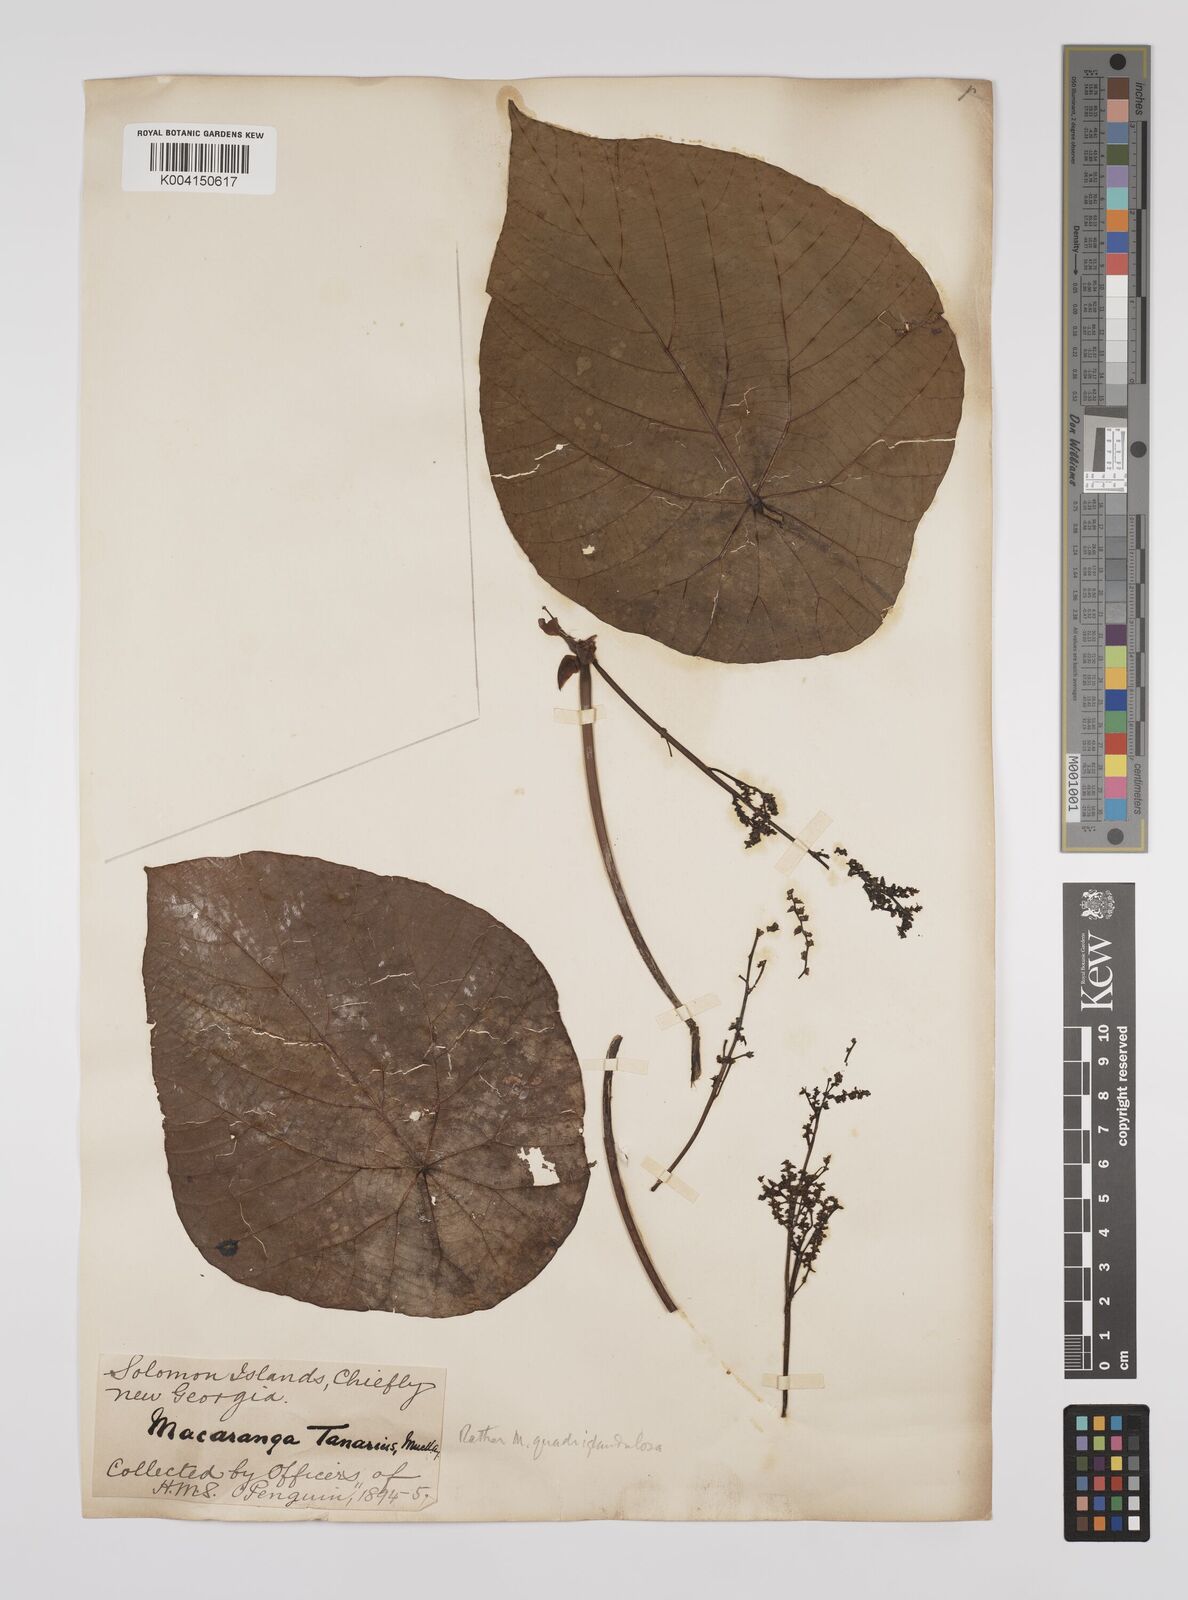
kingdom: Plantae
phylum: Tracheophyta
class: Magnoliopsida
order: Malpighiales
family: Euphorbiaceae
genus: Macaranga
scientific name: Macaranga tanarius
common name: Parasol leaf tree
